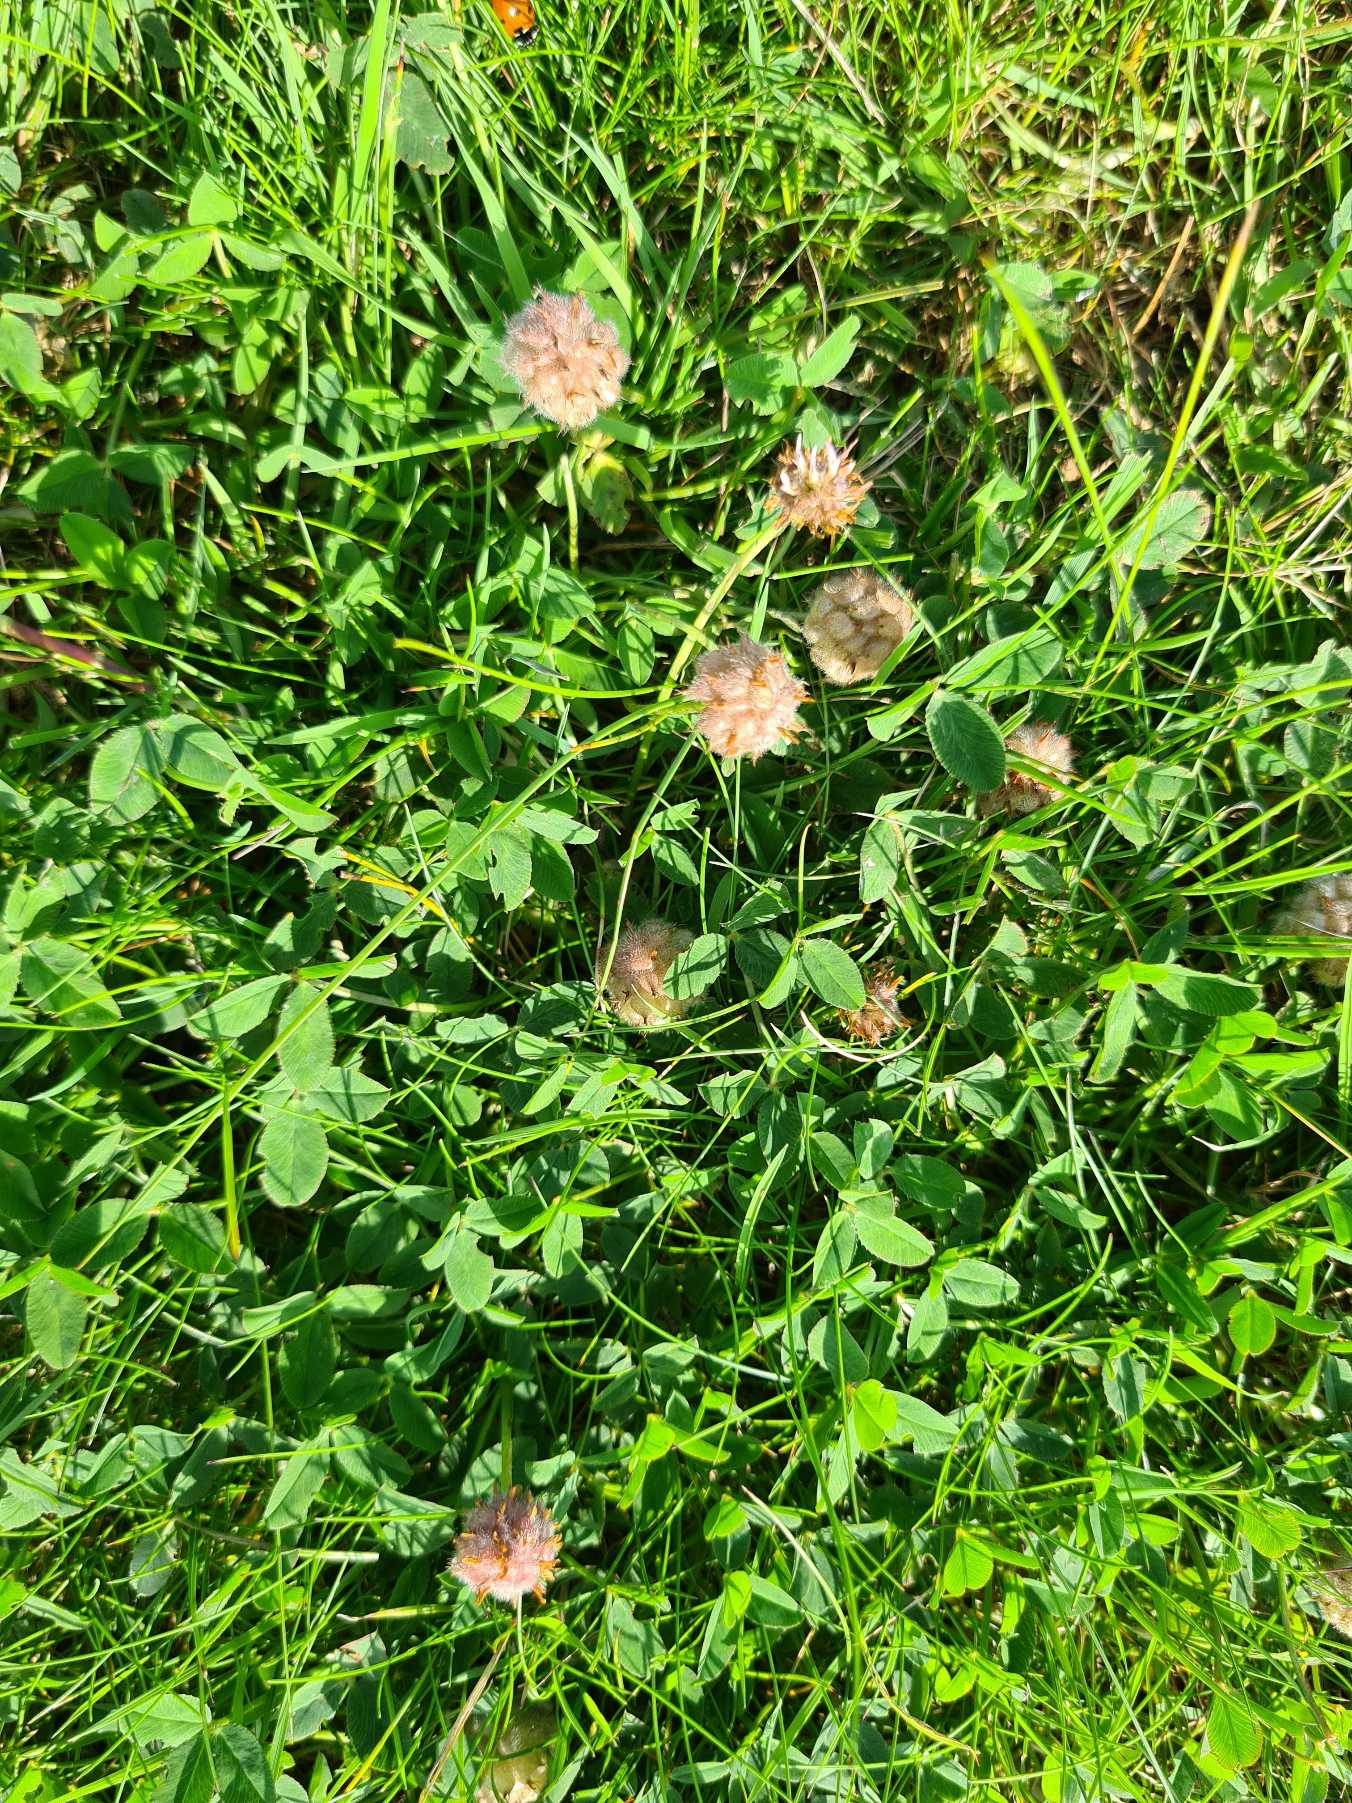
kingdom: Plantae
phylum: Tracheophyta
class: Magnoliopsida
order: Fabales
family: Fabaceae
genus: Trifolium
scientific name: Trifolium fragiferum
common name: Jordbær-kløver
